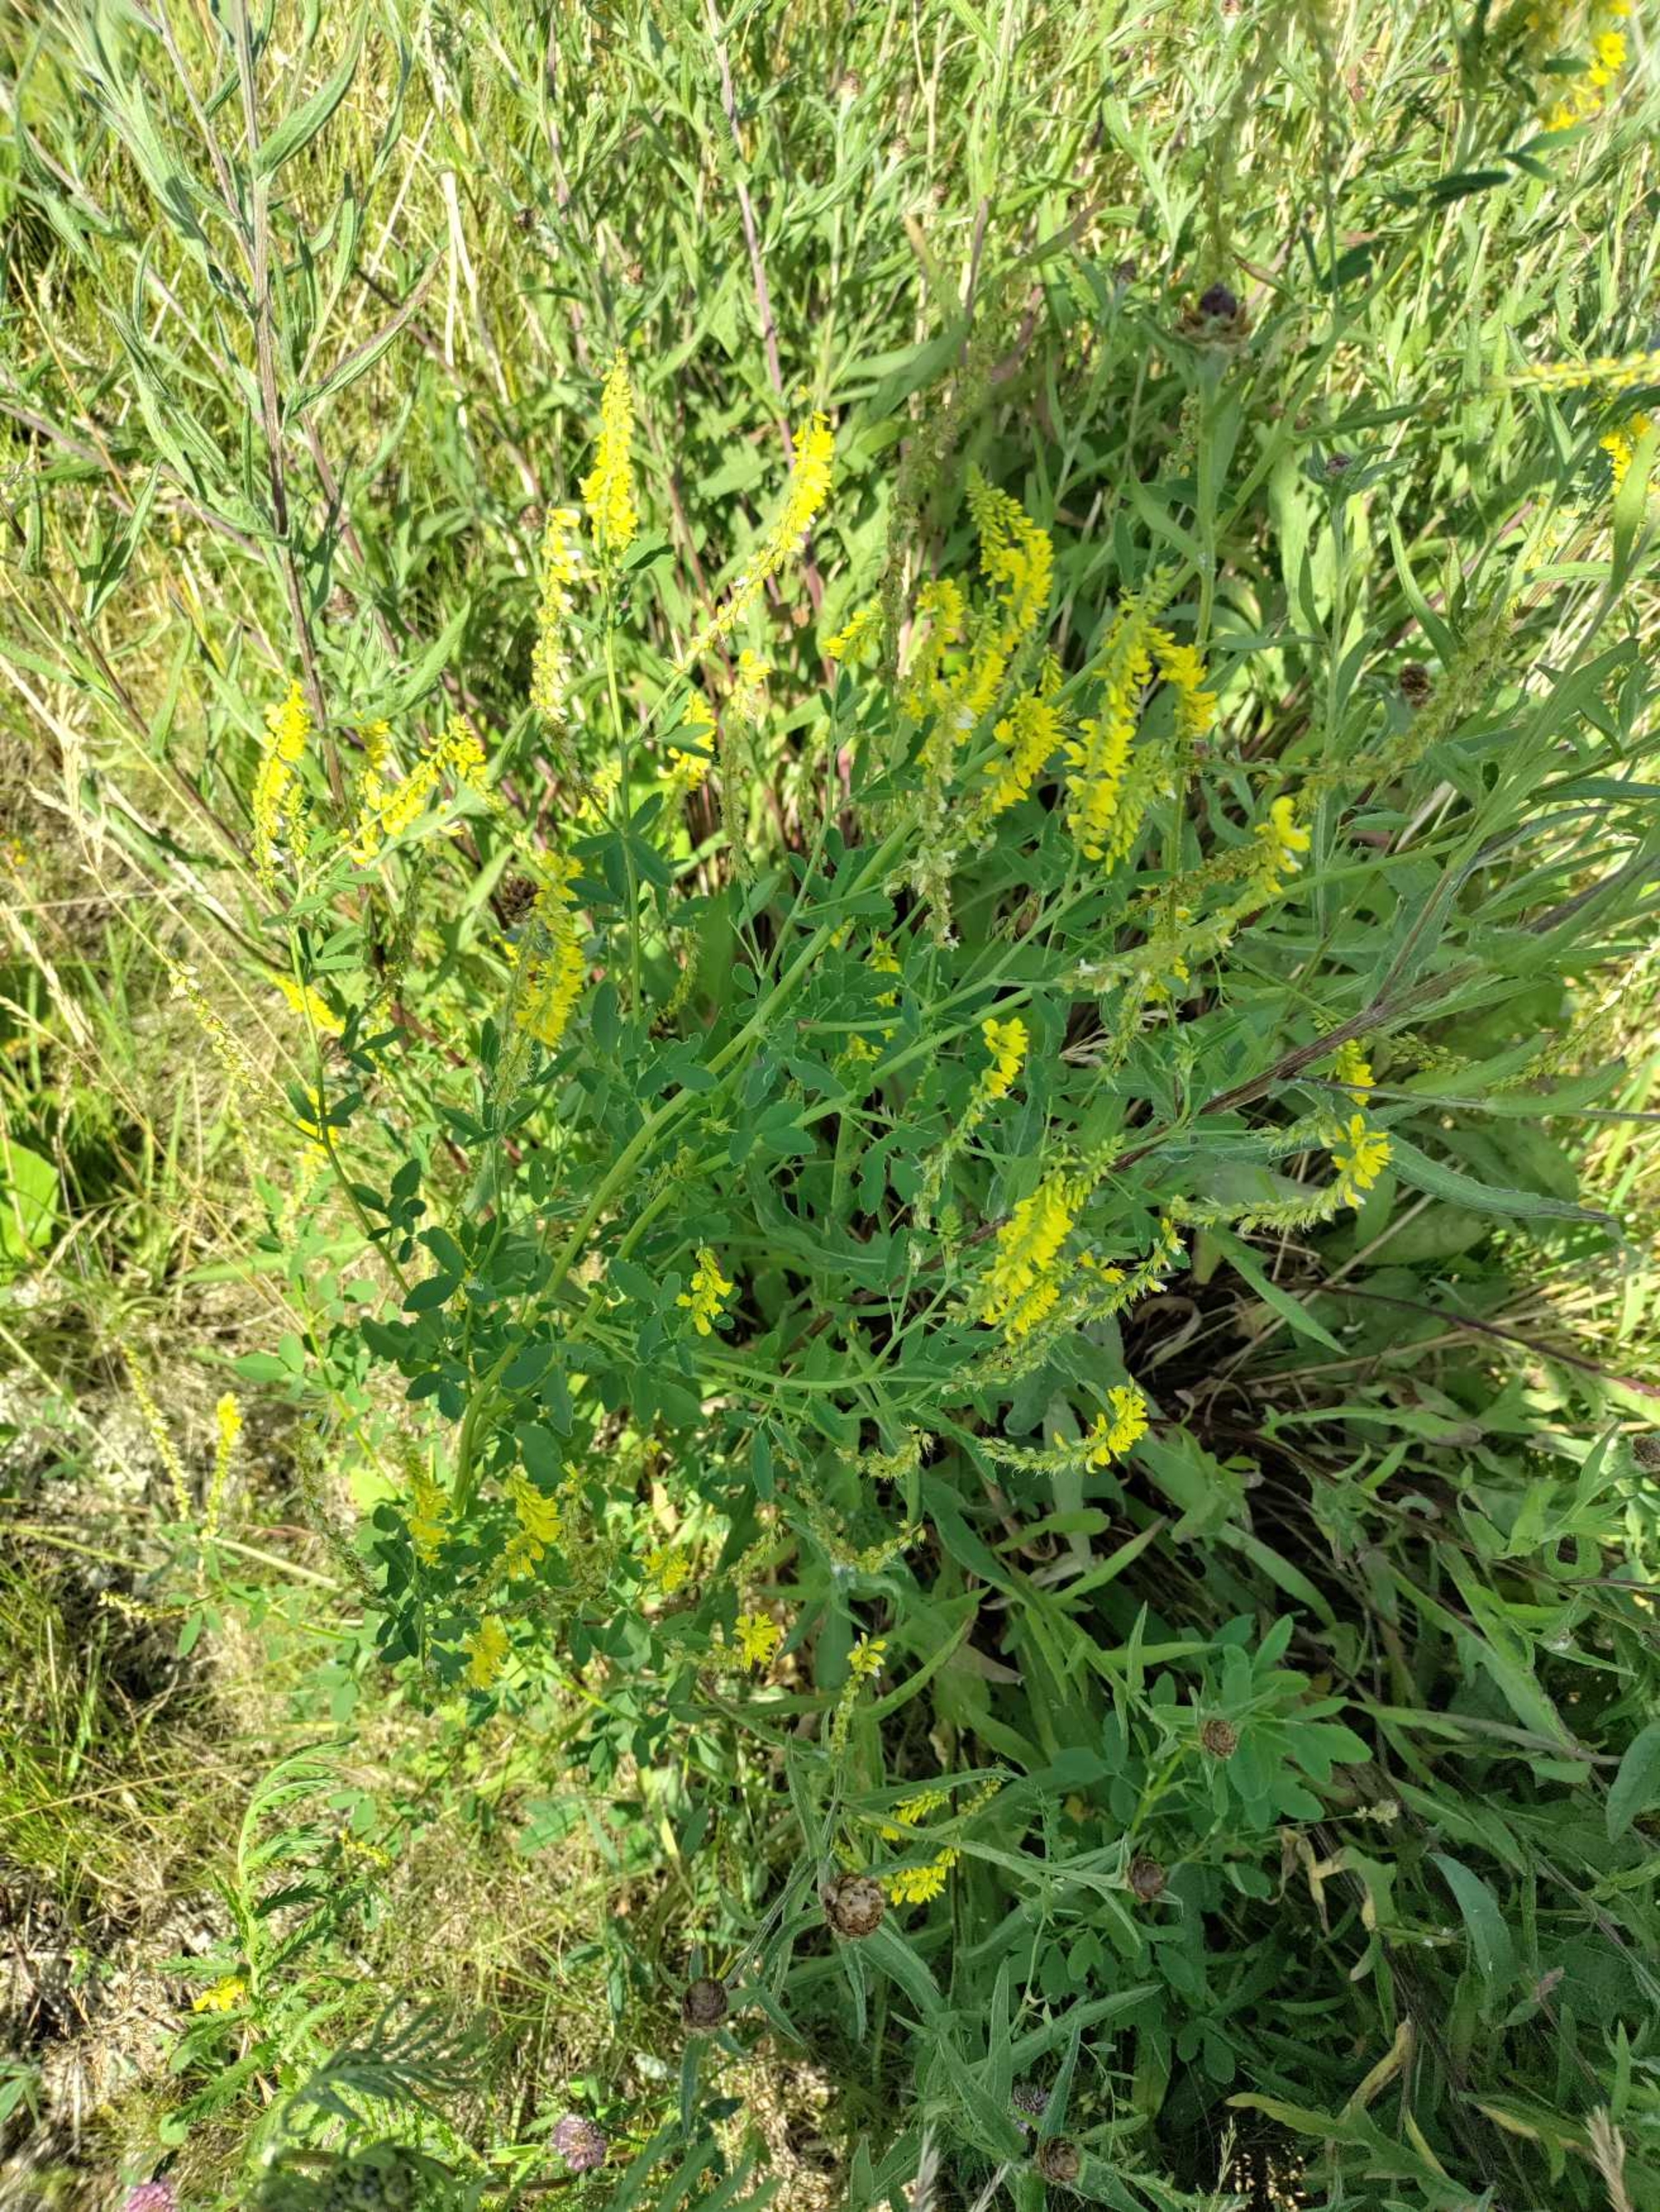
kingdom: Plantae
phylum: Tracheophyta
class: Magnoliopsida
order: Fabales
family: Fabaceae
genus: Melilotus
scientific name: Melilotus officinalis
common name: Mark-stenkløver
